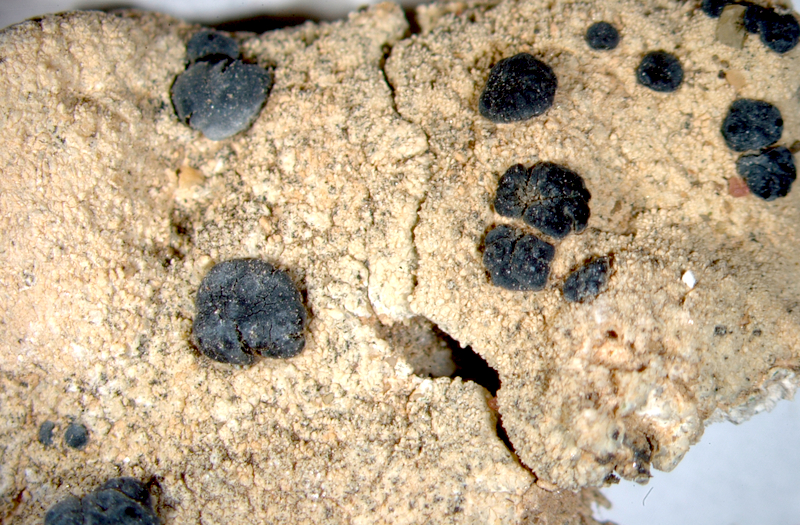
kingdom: Fungi
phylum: Ascomycota
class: Lecanoromycetes
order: Lecanorales
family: Lecanoraceae
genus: Carbonea
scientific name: Carbonea
